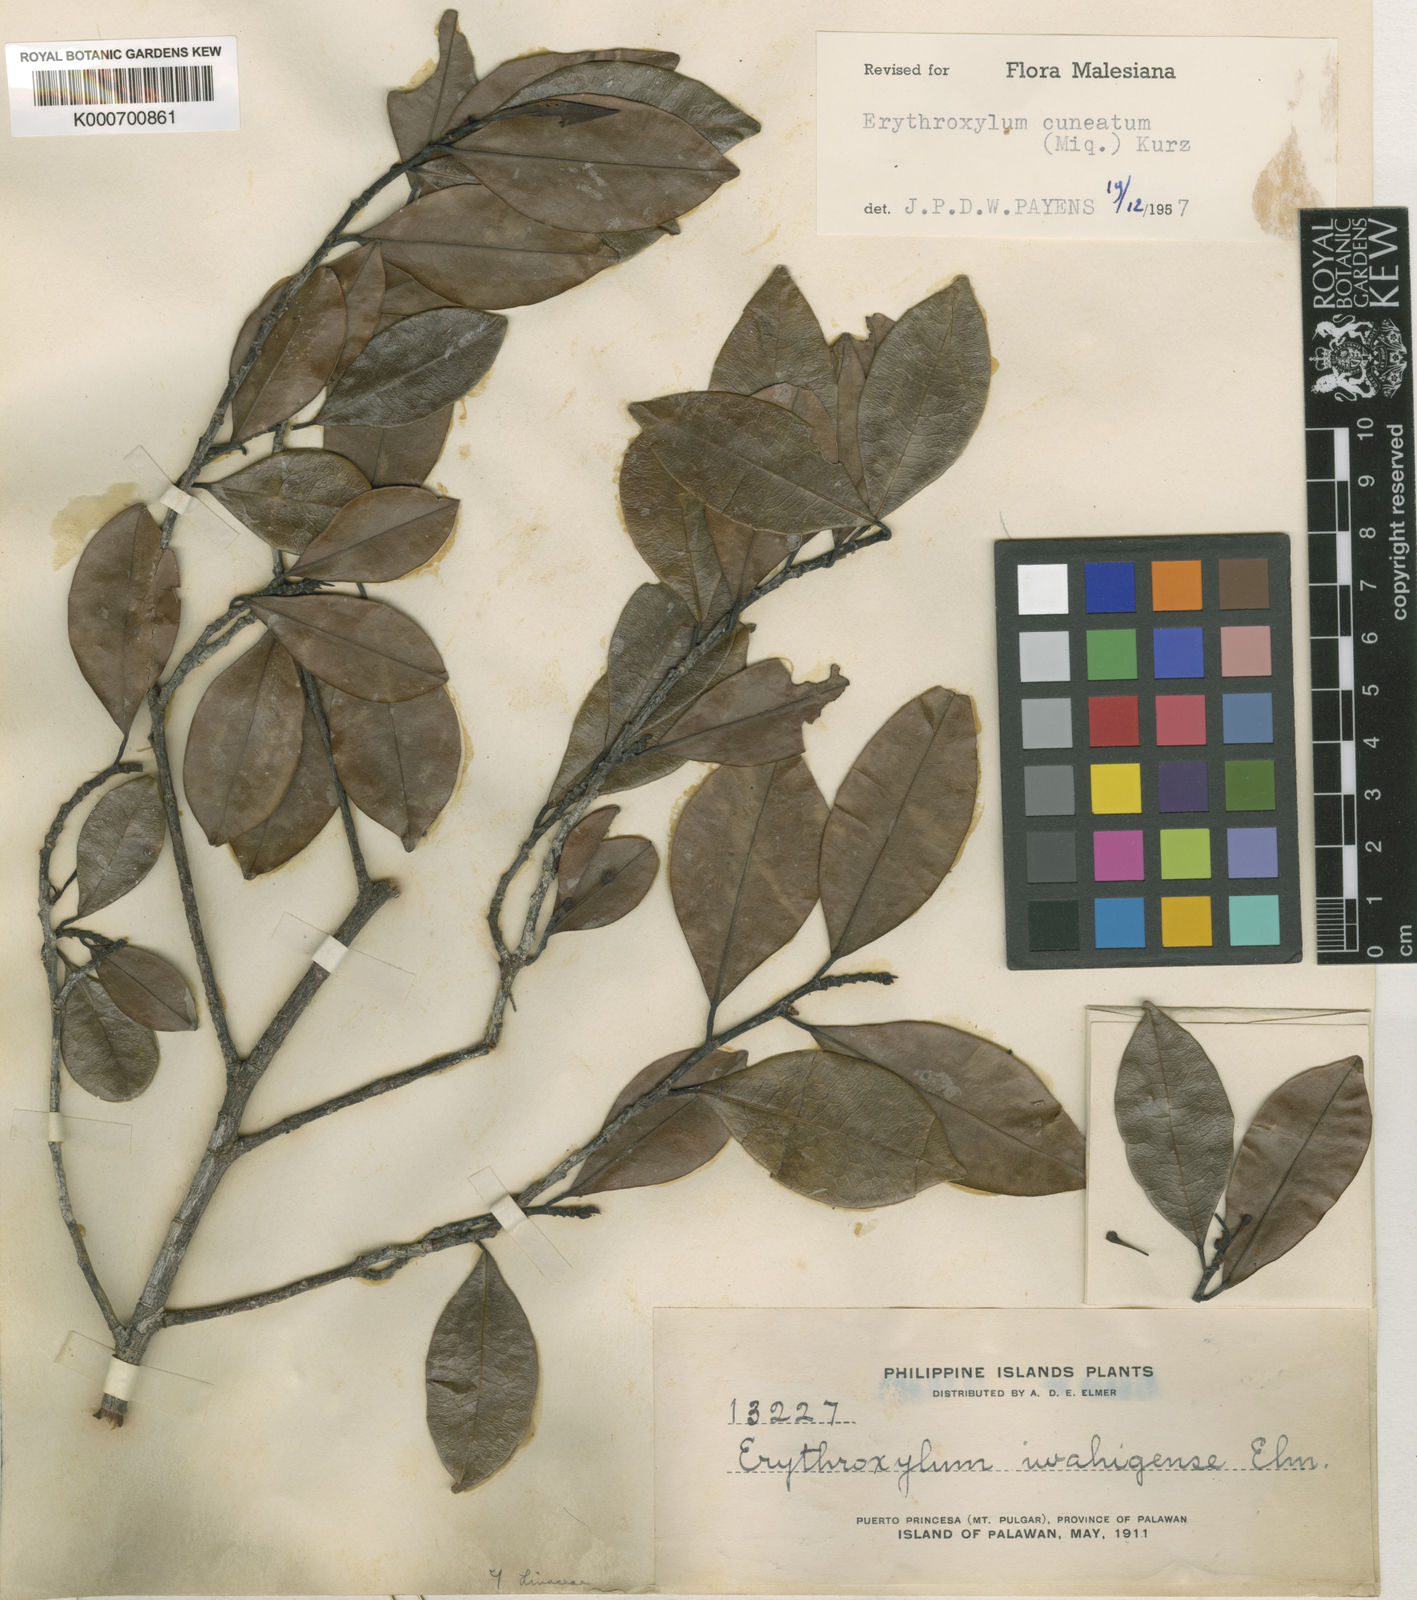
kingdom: Plantae
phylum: Tracheophyta
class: Magnoliopsida
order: Malpighiales
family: Erythroxylaceae
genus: Erythroxylum
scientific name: Erythroxylum cuneatum
